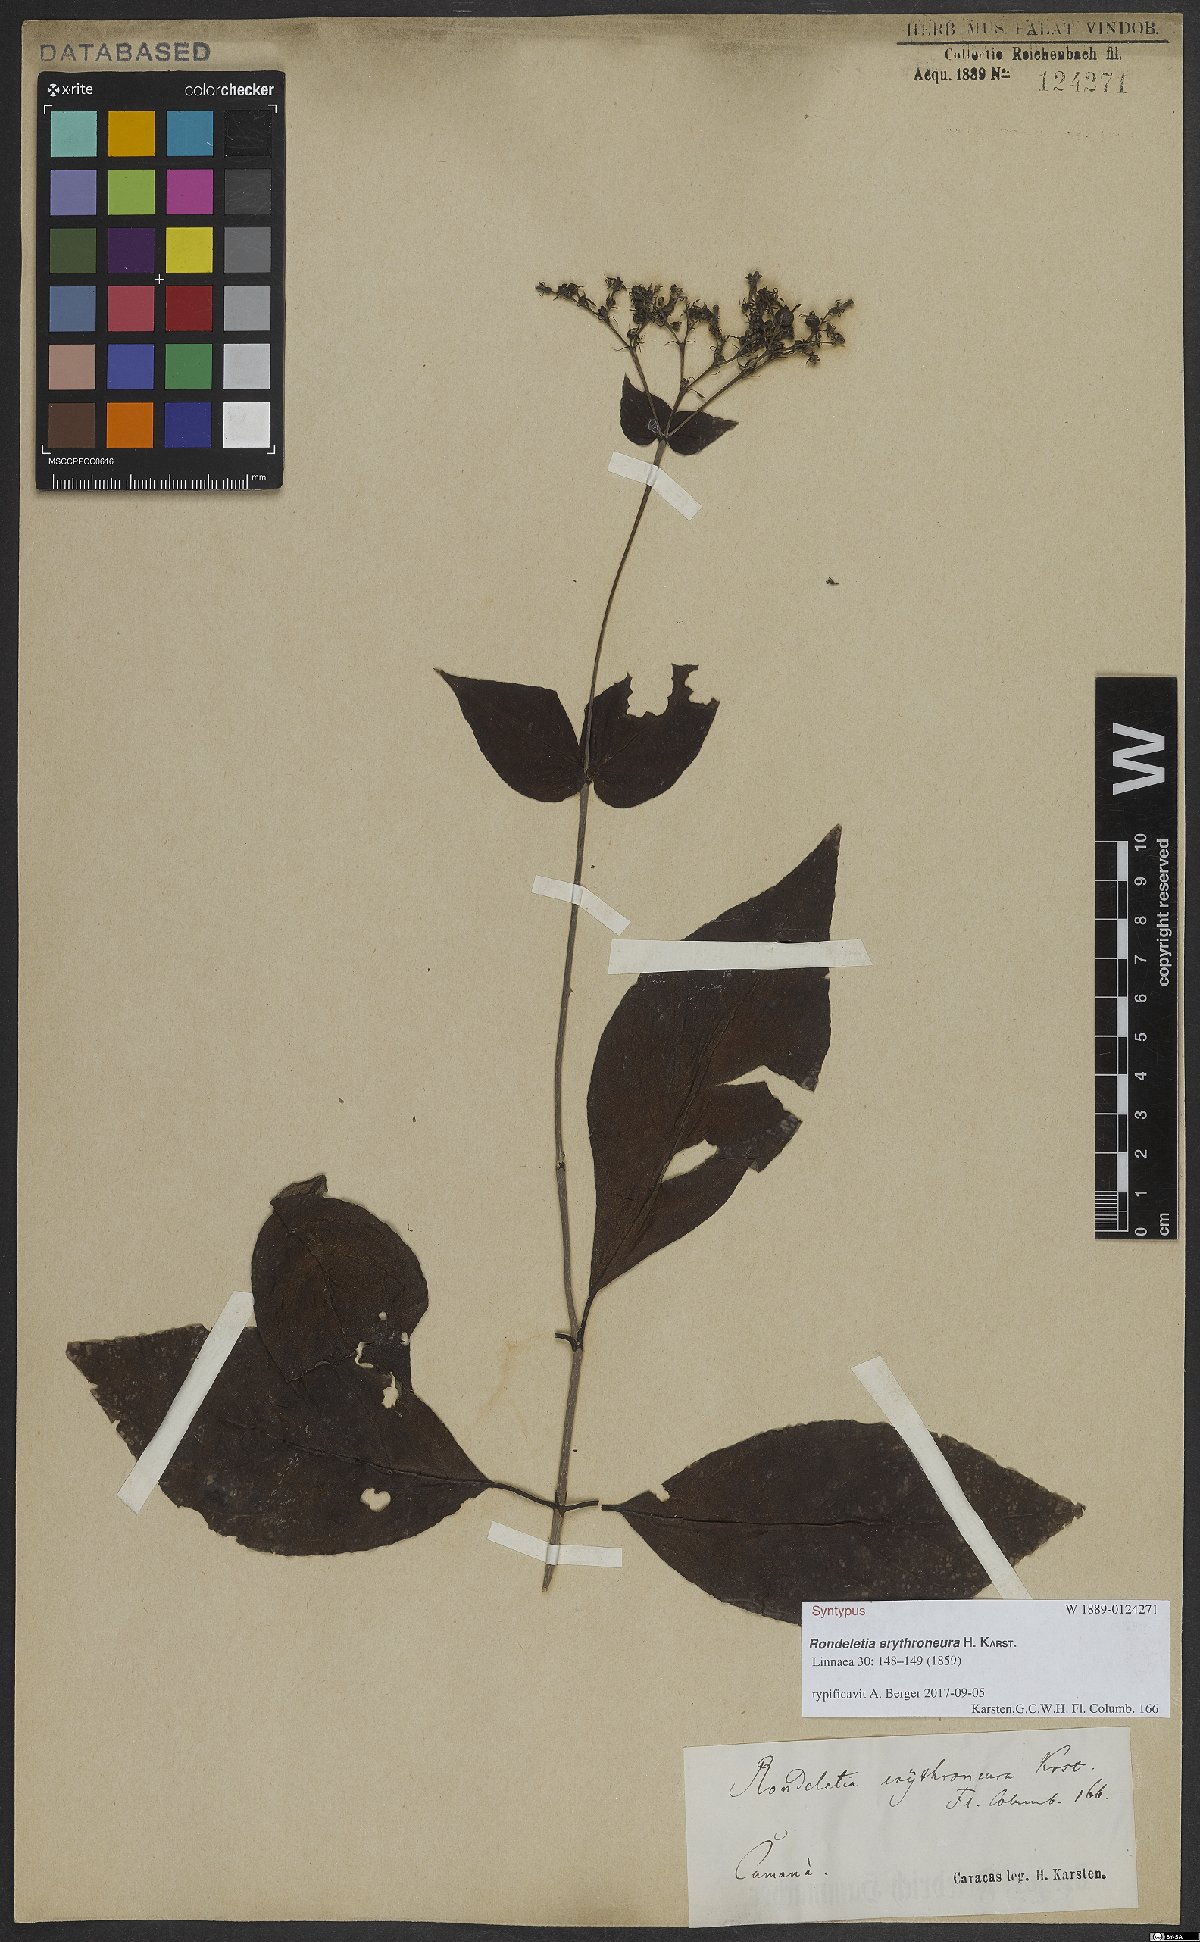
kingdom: Plantae
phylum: Tracheophyta
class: Magnoliopsida
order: Gentianales
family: Rubiaceae
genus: Rondeletia
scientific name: Rondeletia erythroneura
